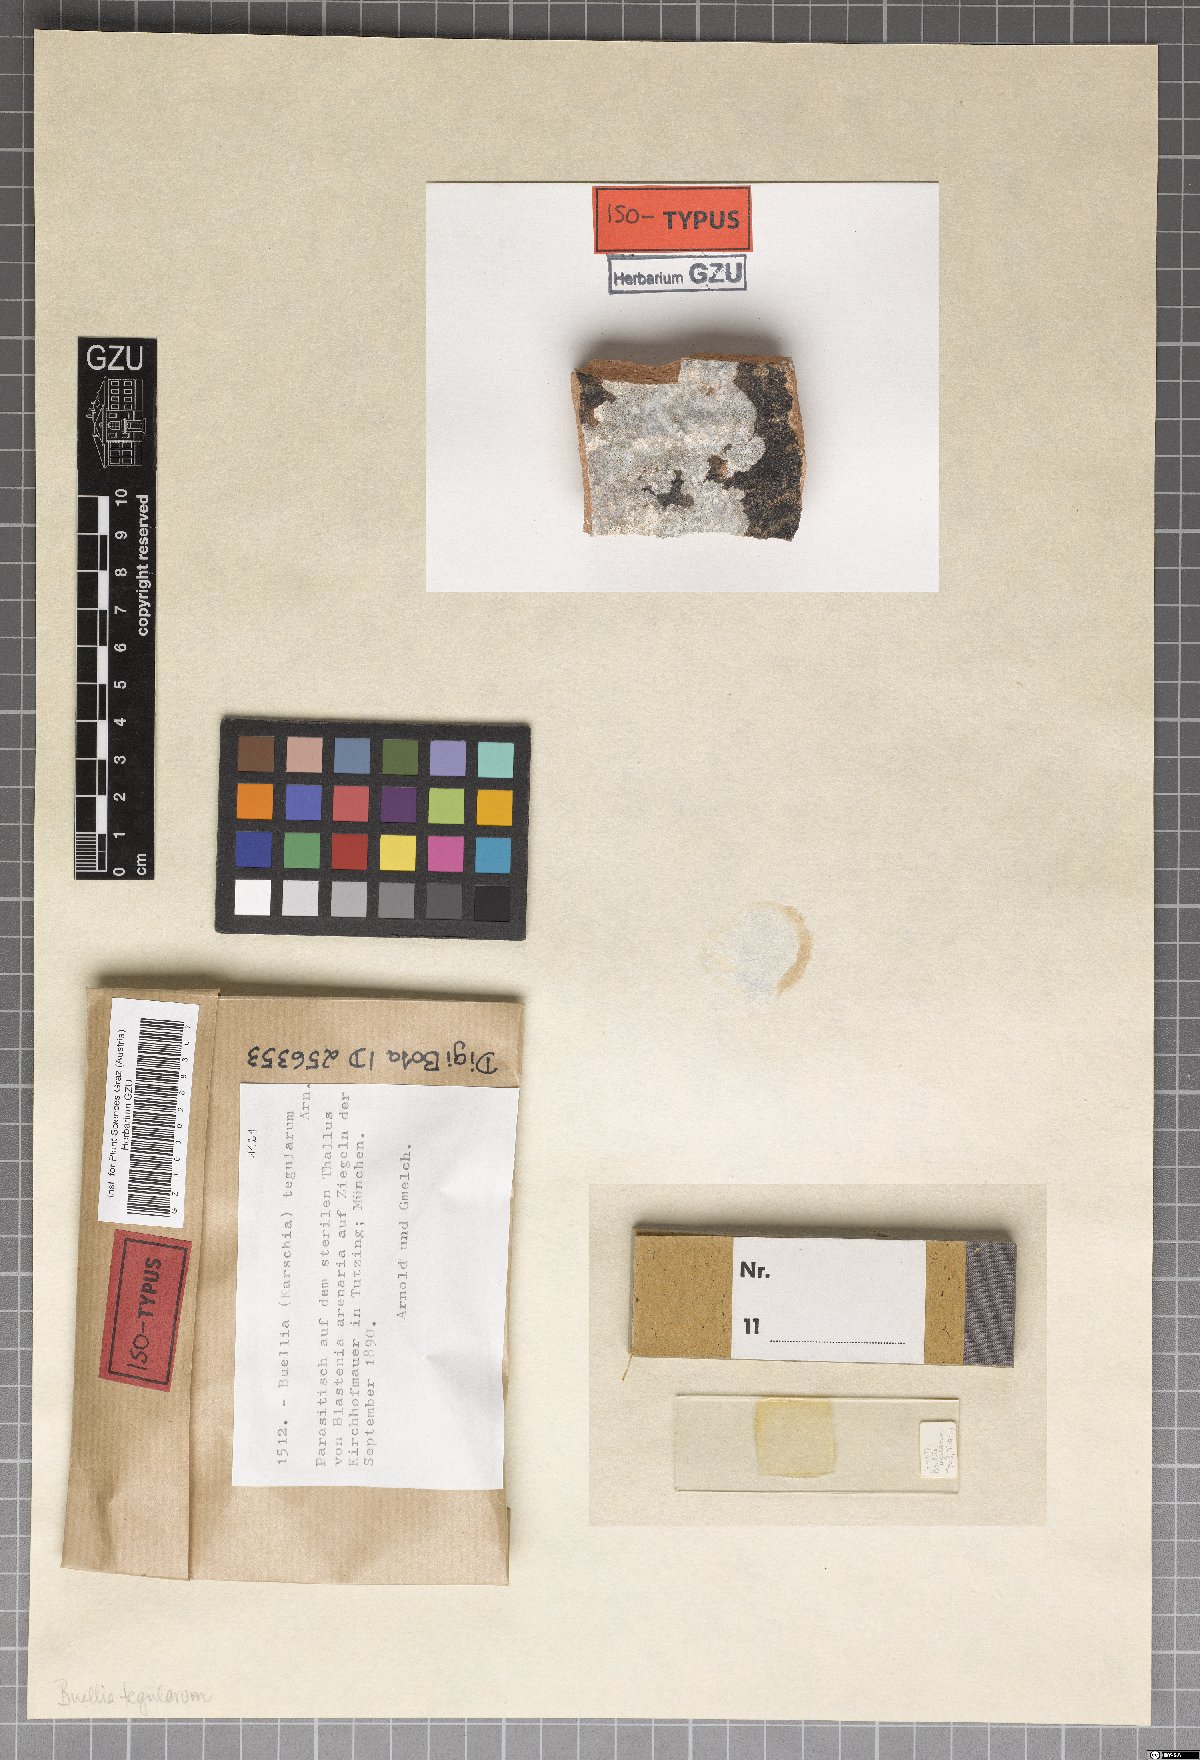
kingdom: Fungi
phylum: Ascomycota
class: Eurotiomycetes
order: Sclerococcales
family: Sclerococcaceae
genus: Sclerococcum
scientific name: Sclerococcum tegularum
